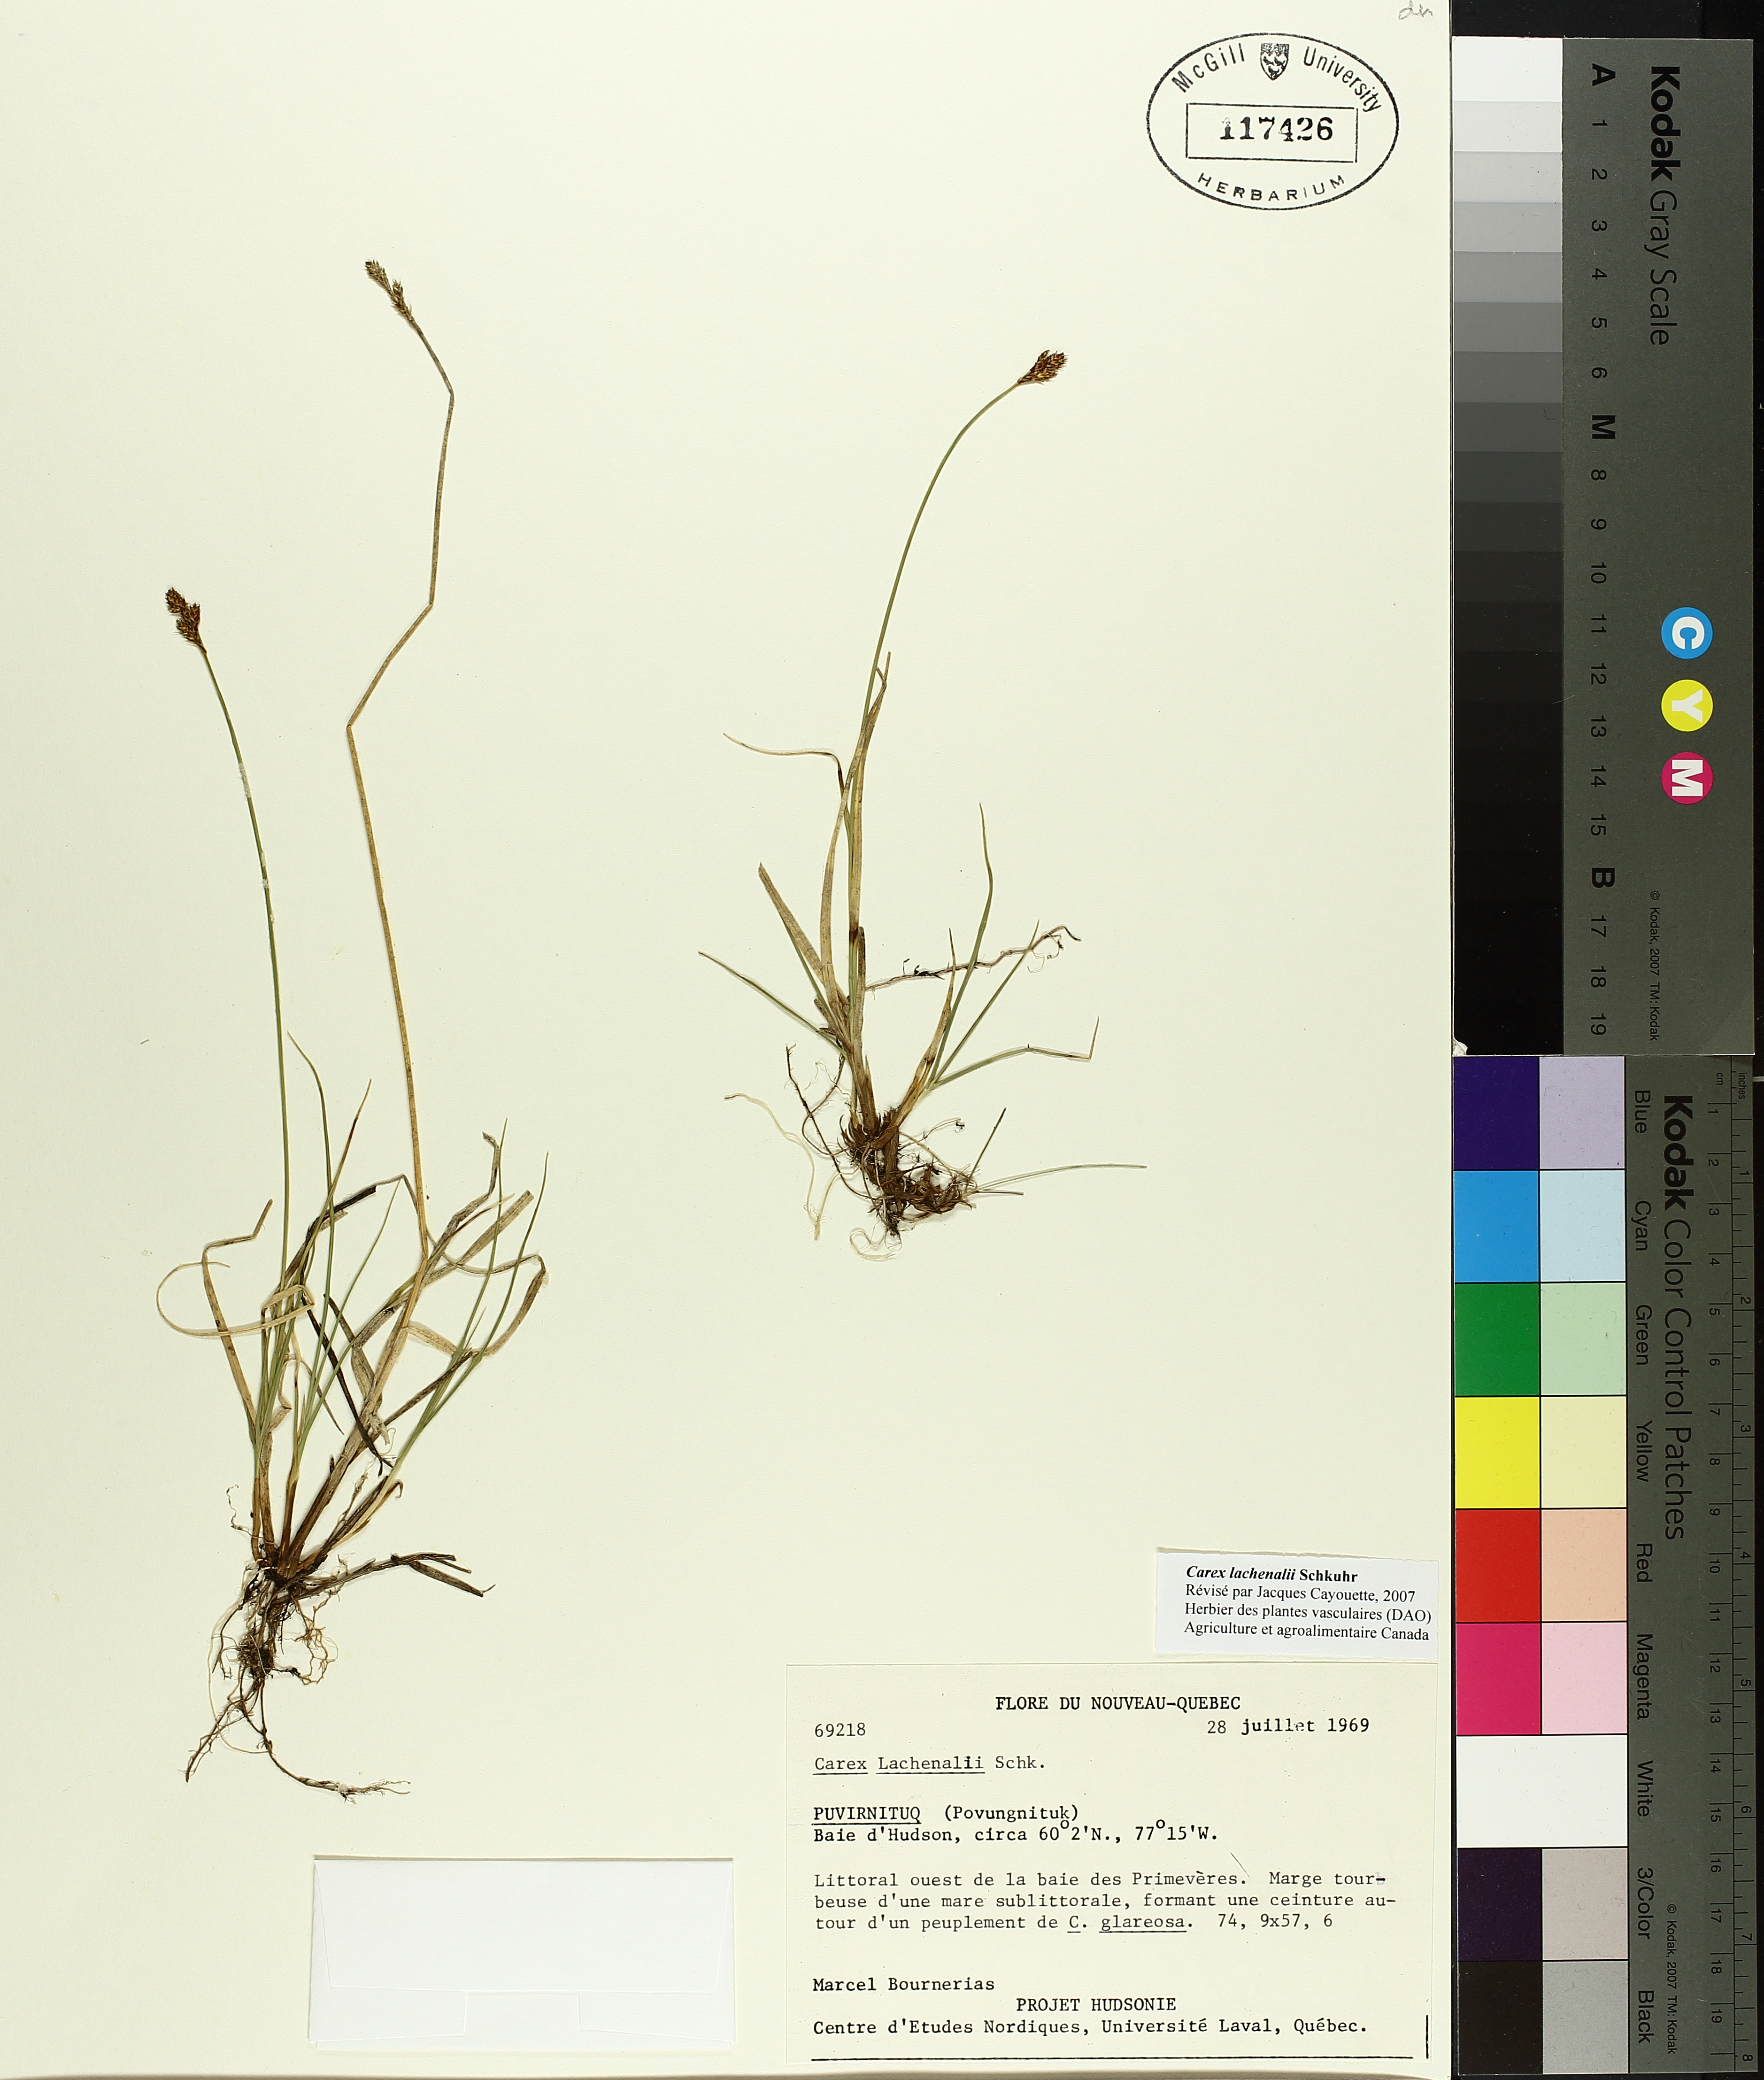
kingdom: Plantae
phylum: Tracheophyta
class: Liliopsida
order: Poales
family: Cyperaceae
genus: Carex
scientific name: Carex lachenalii
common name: Hare's-foot sedge
